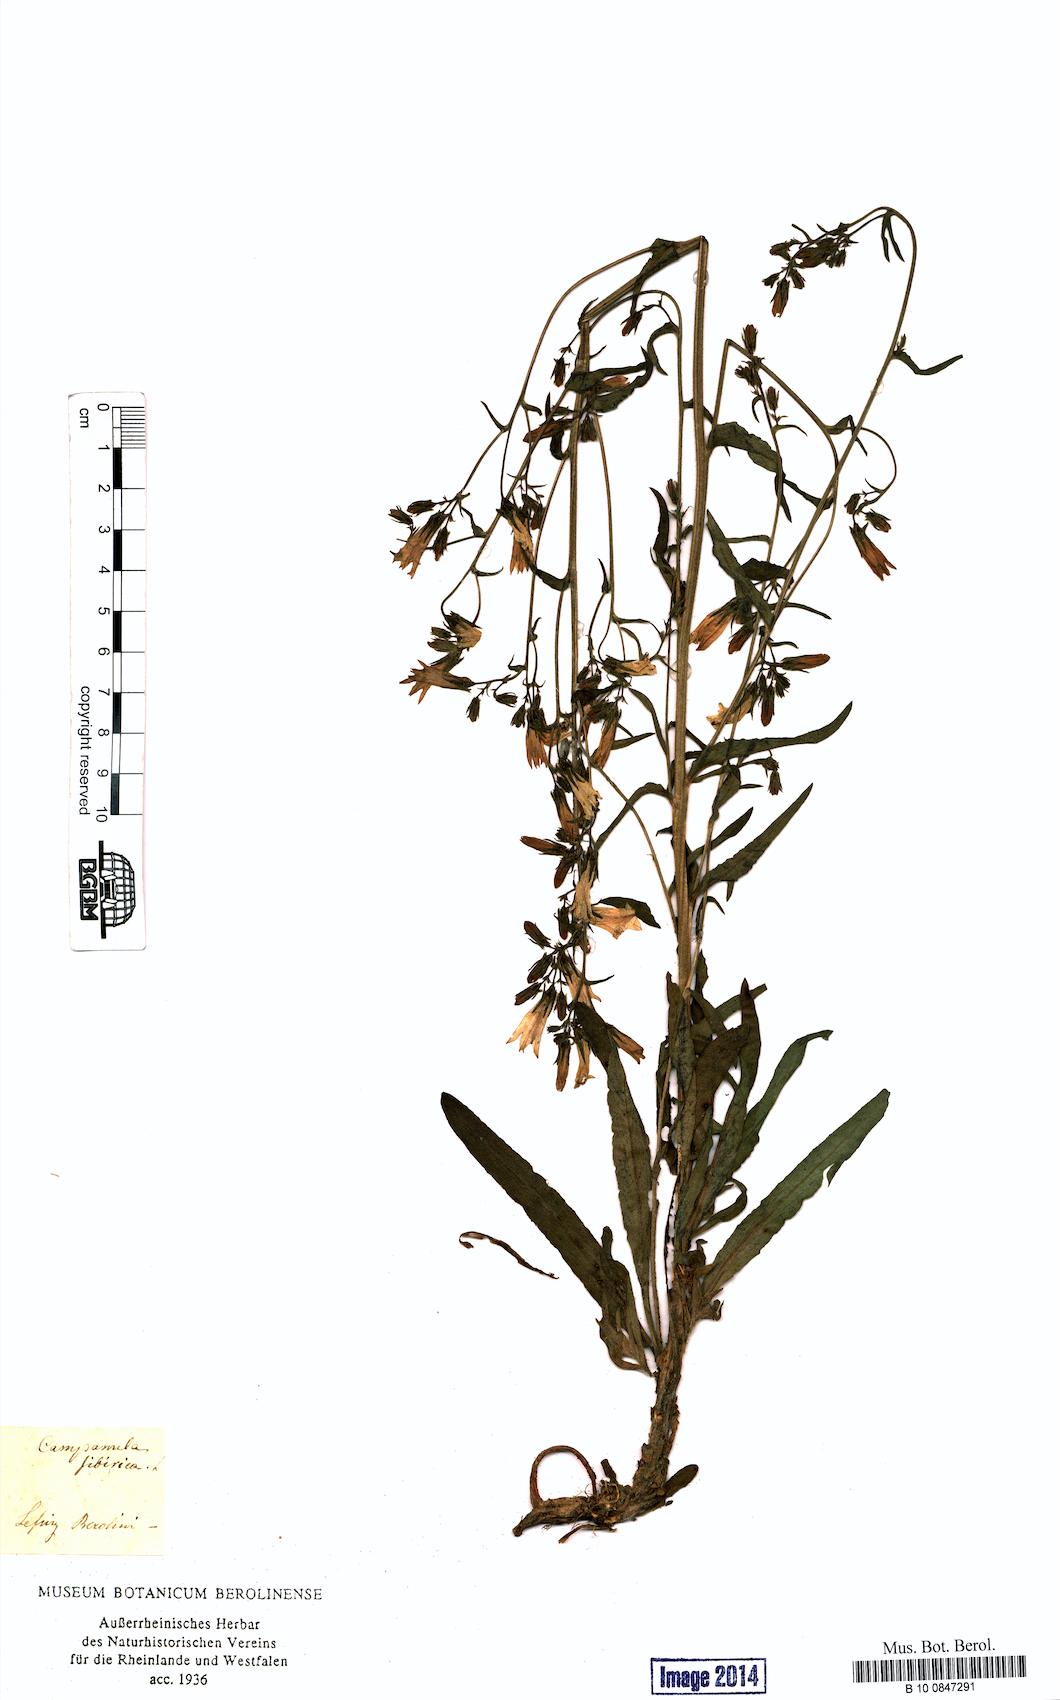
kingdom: Plantae
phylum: Tracheophyta
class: Magnoliopsida
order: Asterales
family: Campanulaceae
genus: Campanula
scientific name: Campanula sibirica
